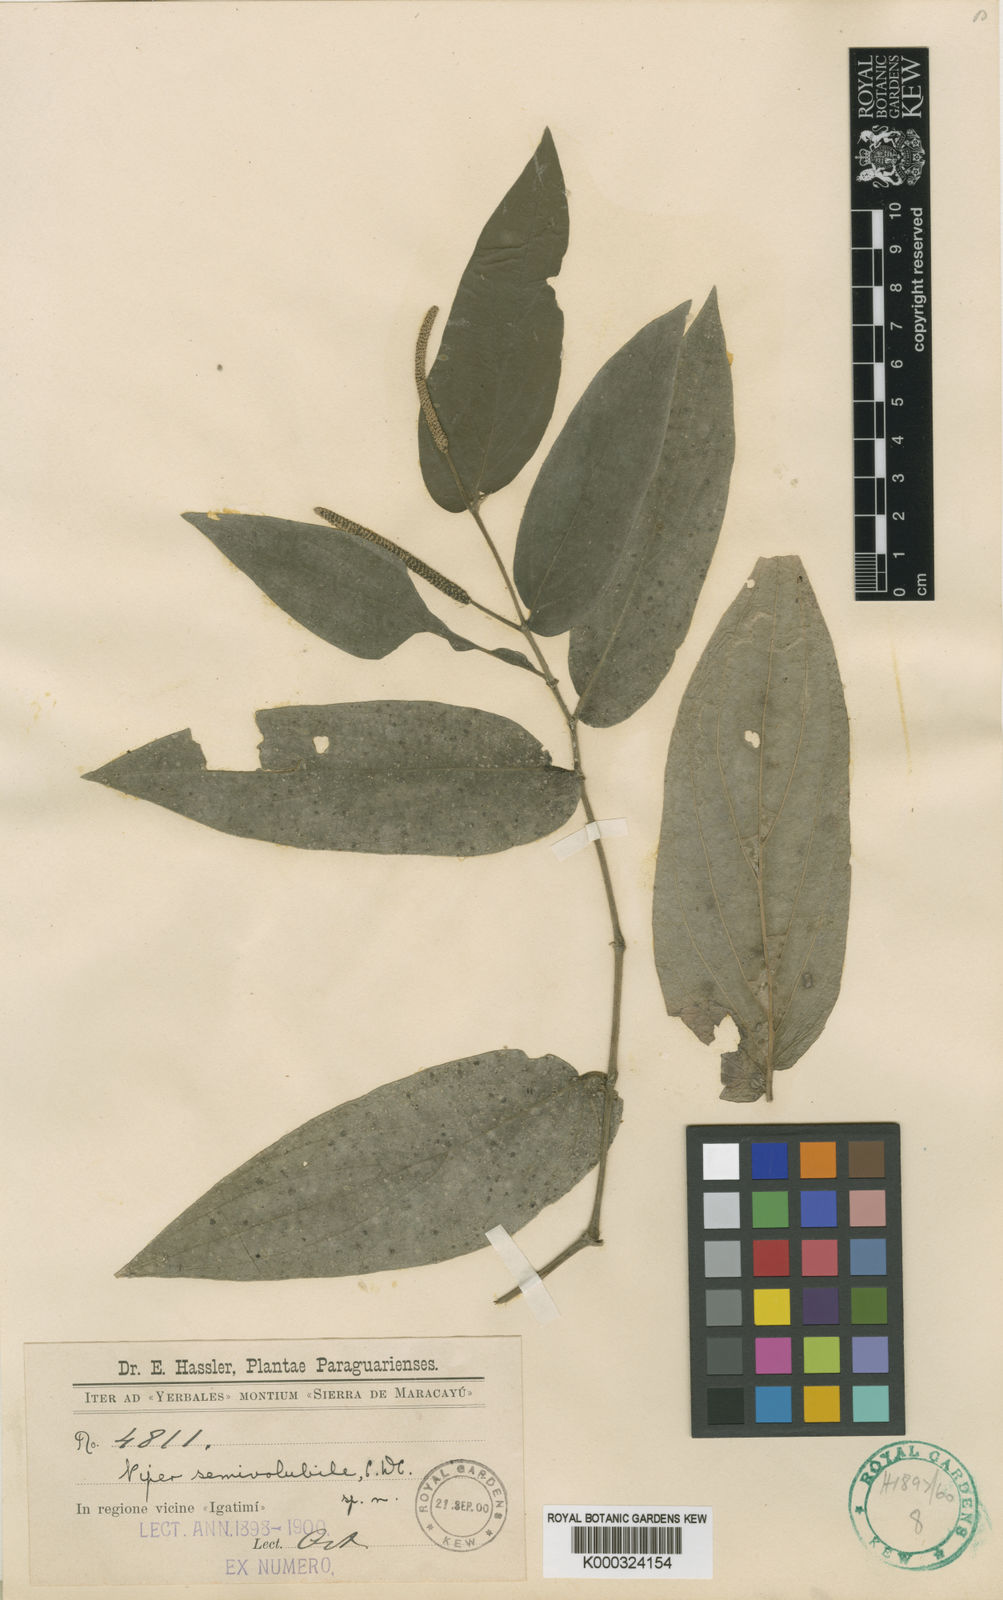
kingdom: Plantae
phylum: Tracheophyta
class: Magnoliopsida
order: Piperales
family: Piperaceae
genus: Piper
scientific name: Piper semivolubile
